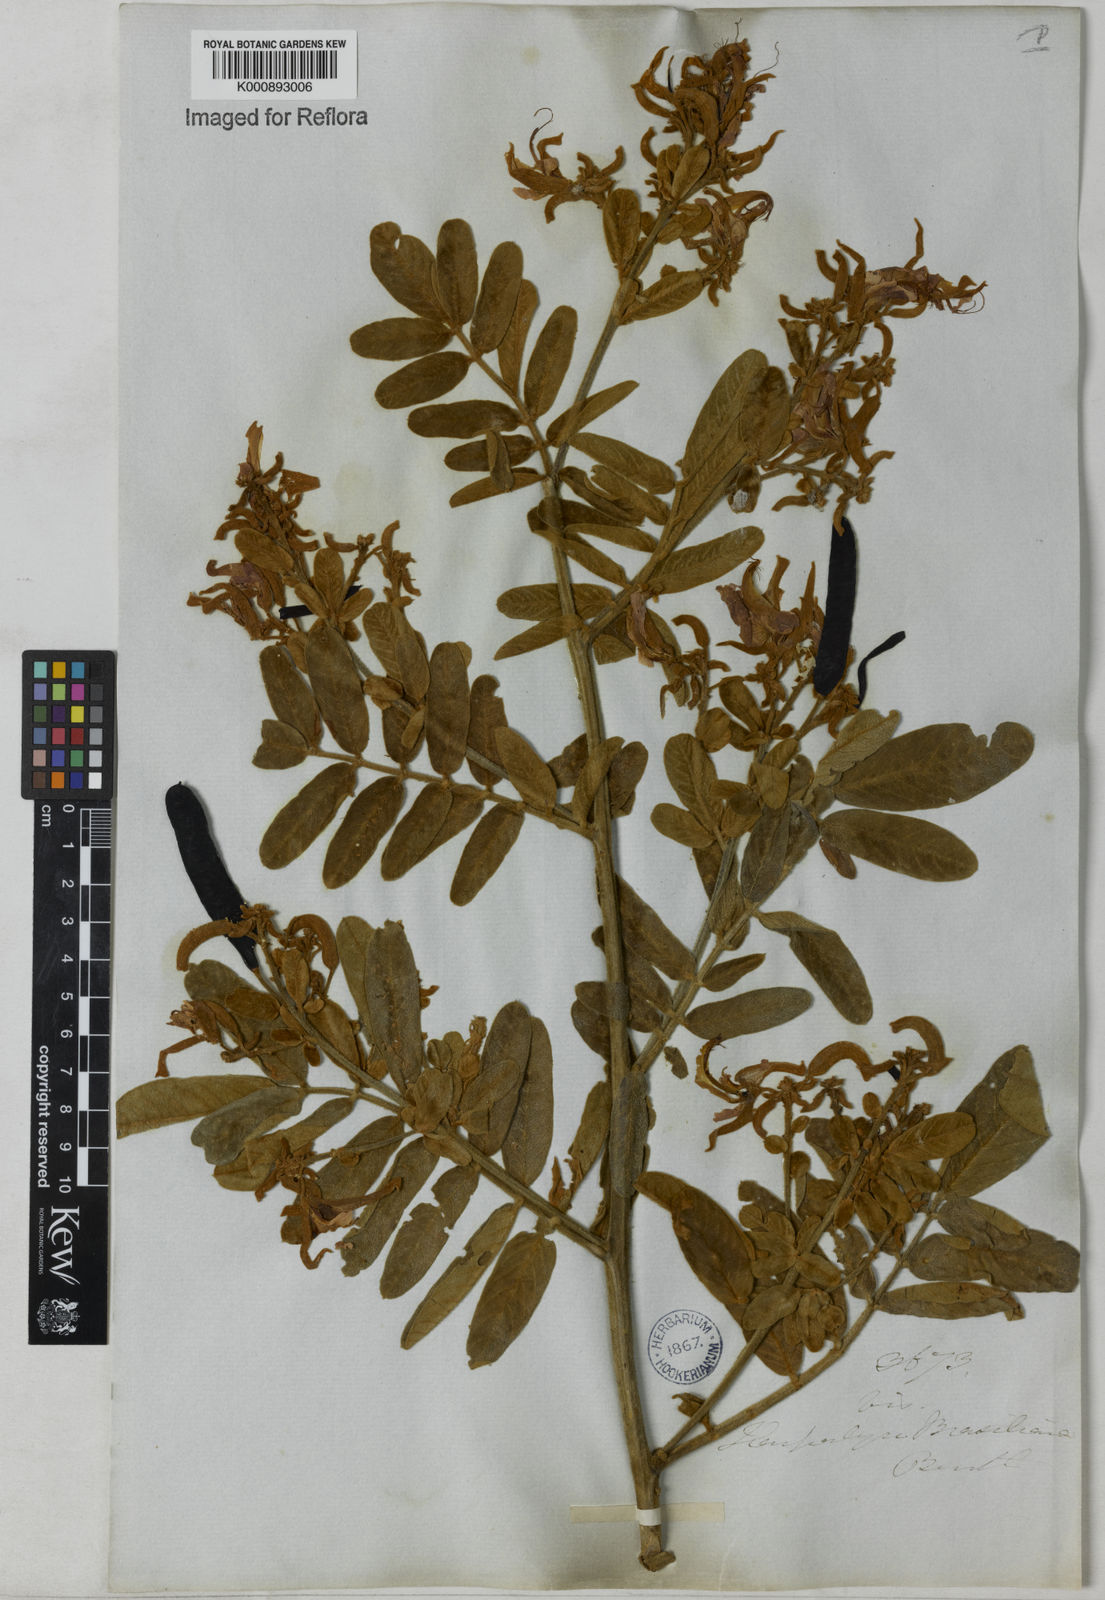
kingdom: Plantae
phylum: Tracheophyta
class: Magnoliopsida
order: Fabales
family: Fabaceae
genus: Harpalyce
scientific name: Harpalyce brasiliana
